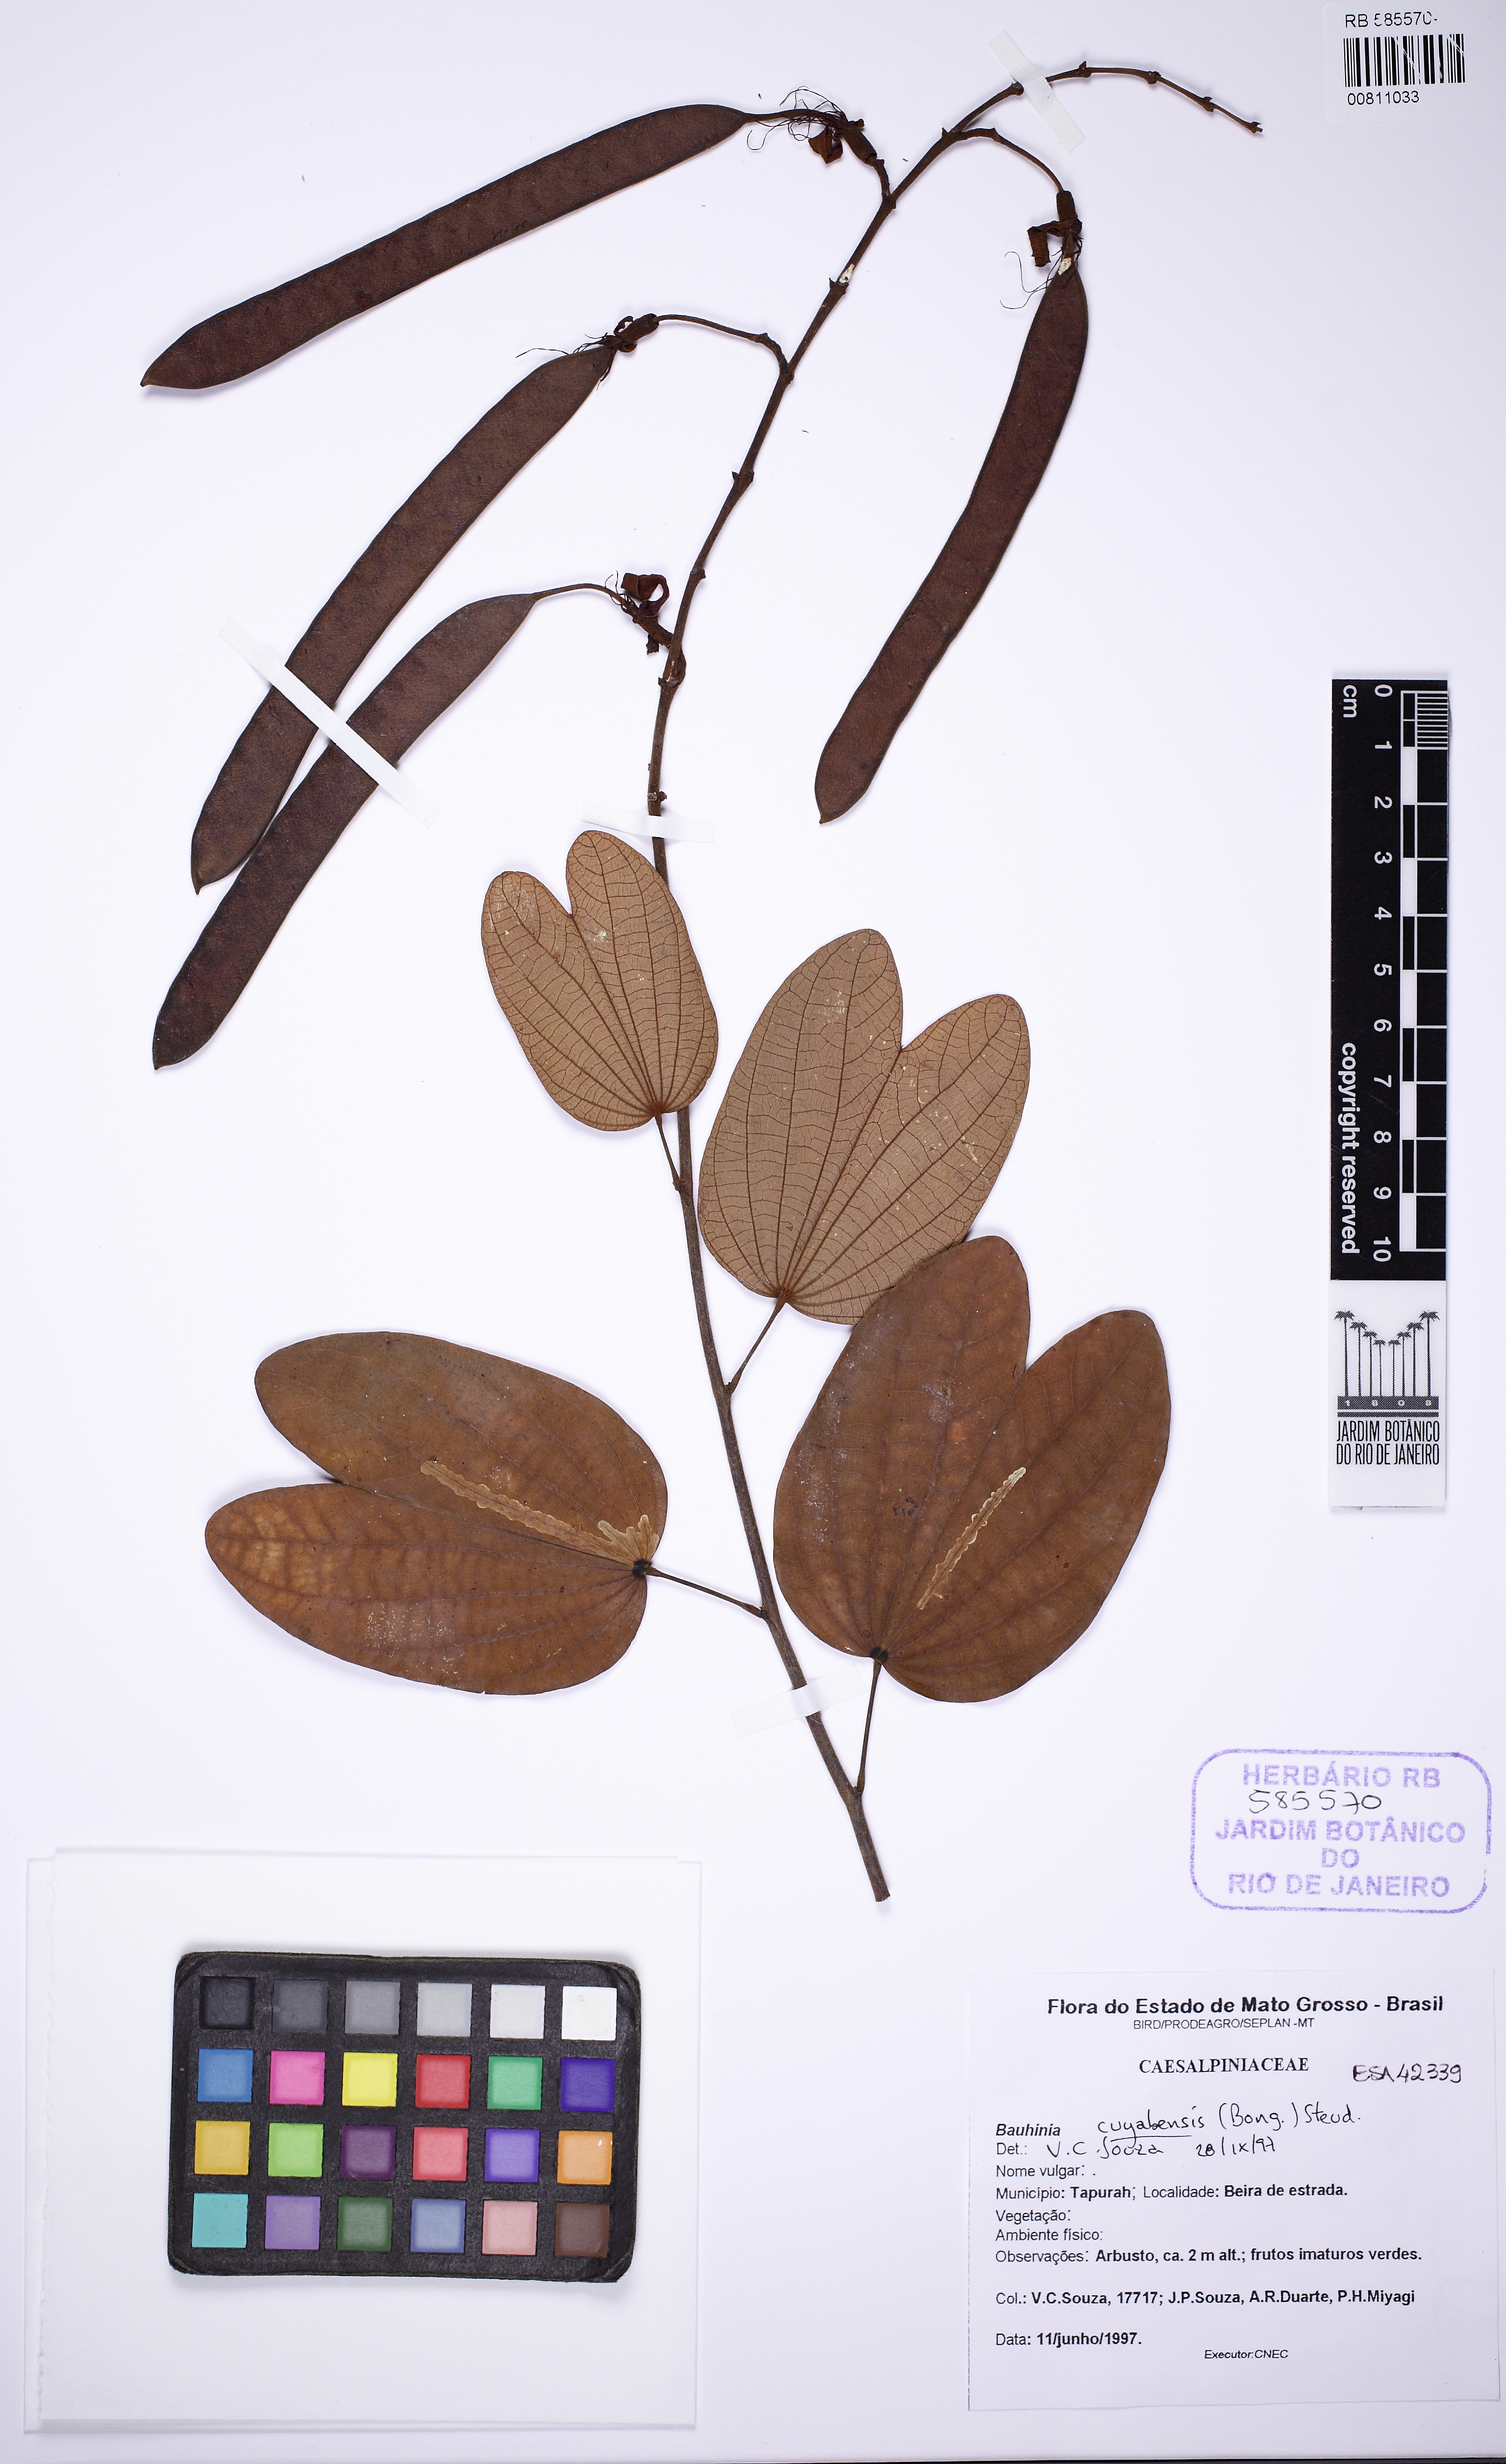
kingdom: Plantae
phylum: Tracheophyta
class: Magnoliopsida
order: Fabales
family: Fabaceae
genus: Bauhinia
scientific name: Bauhinia ungulata
